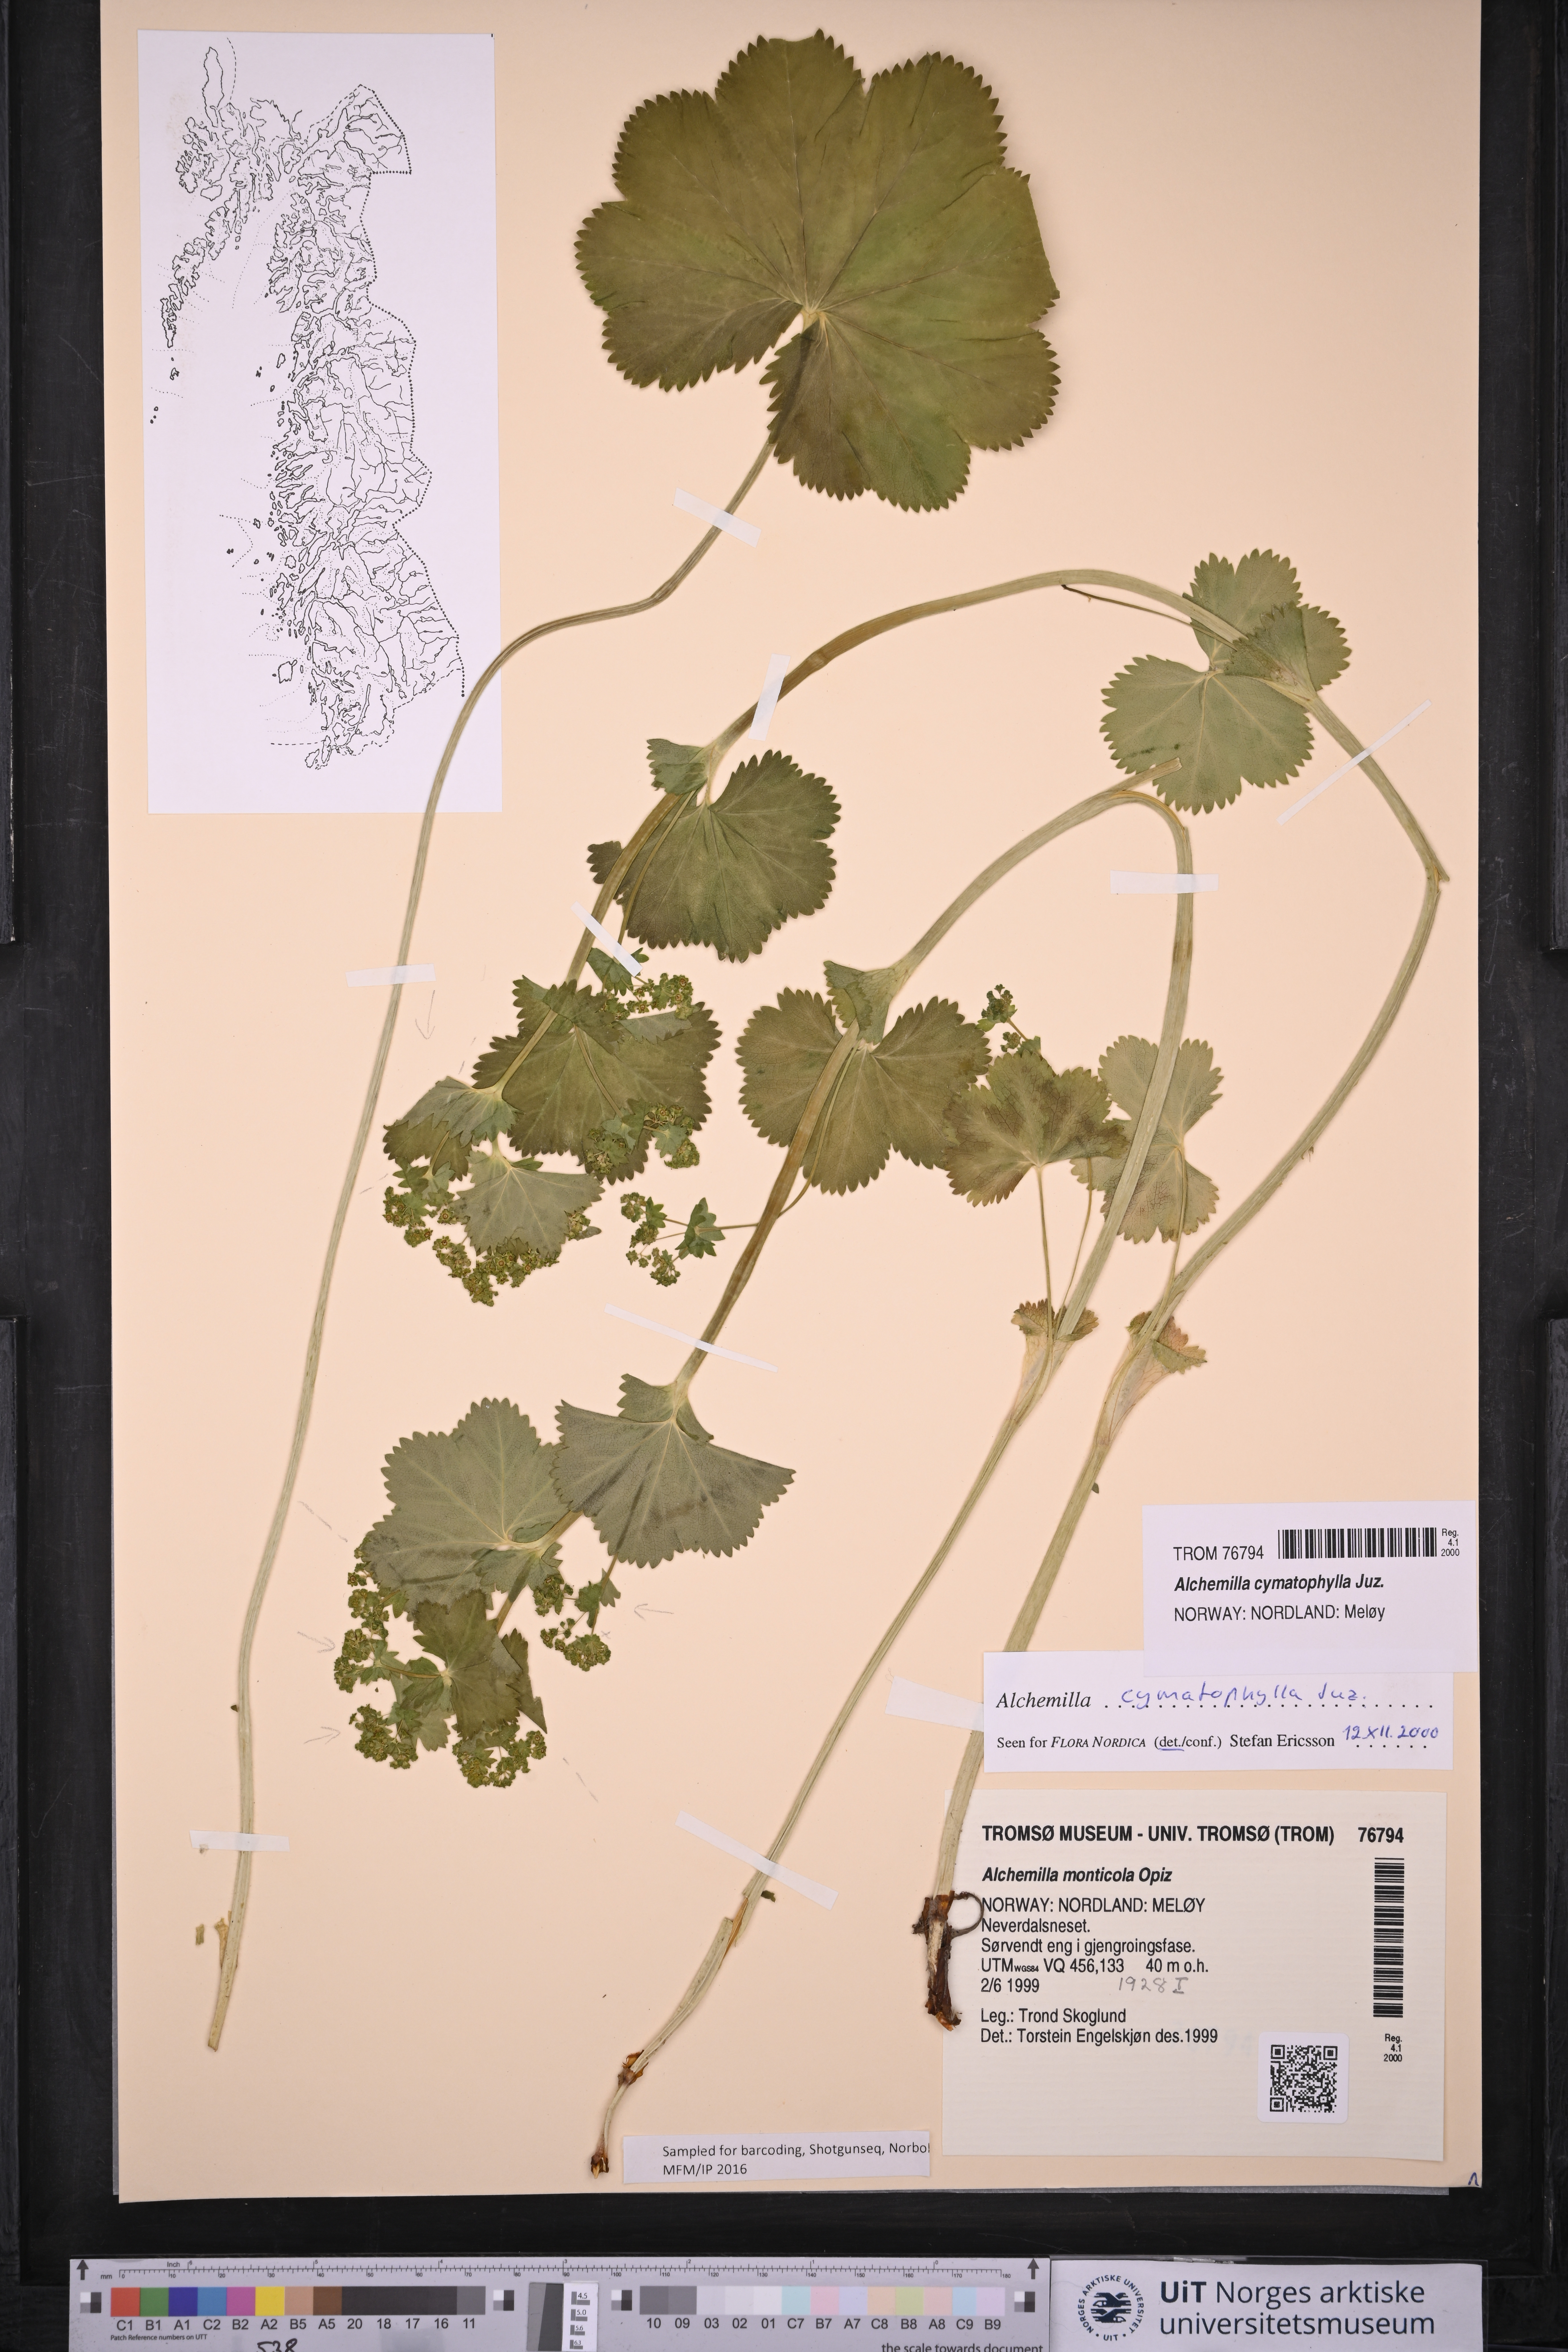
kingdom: Plantae
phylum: Tracheophyta
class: Magnoliopsida
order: Rosales
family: Rosaceae
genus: Alchemilla
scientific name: Alchemilla cymatophylla
